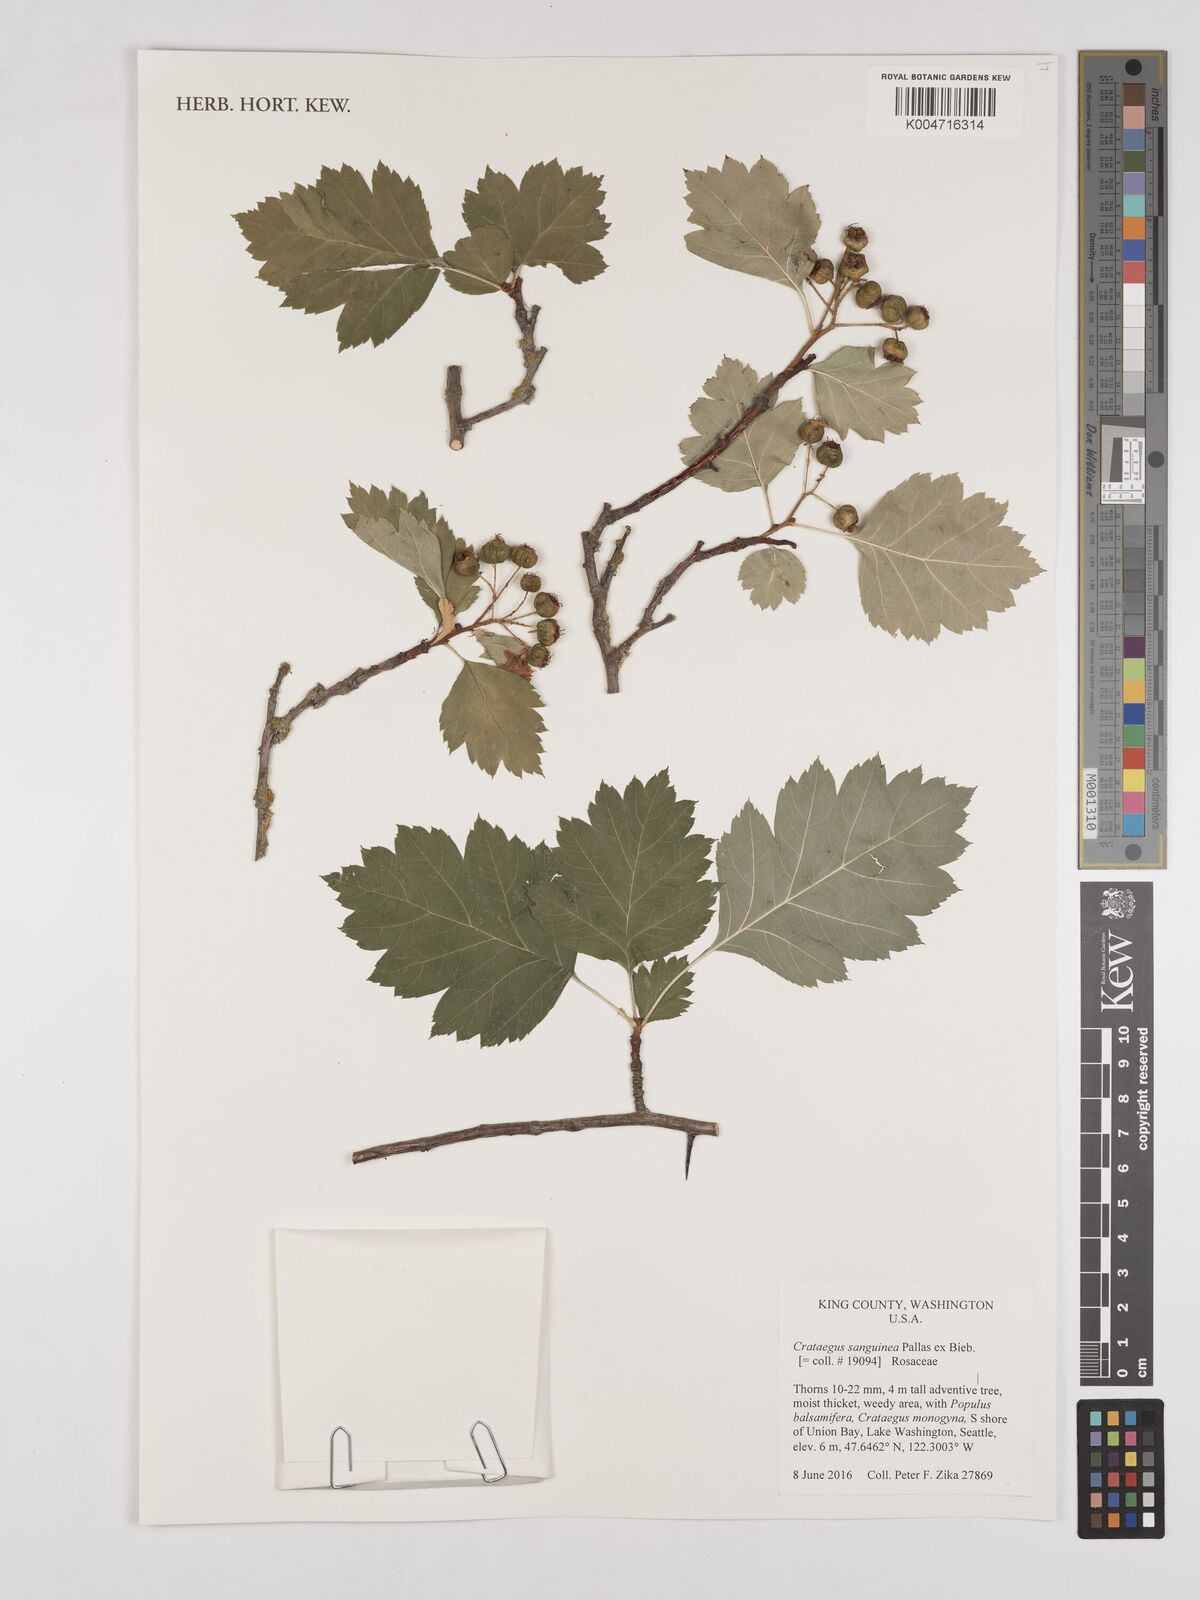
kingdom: Plantae
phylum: Tracheophyta
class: Magnoliopsida
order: Rosales
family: Rosaceae
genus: Crataegus
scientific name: Crataegus sanguinea
